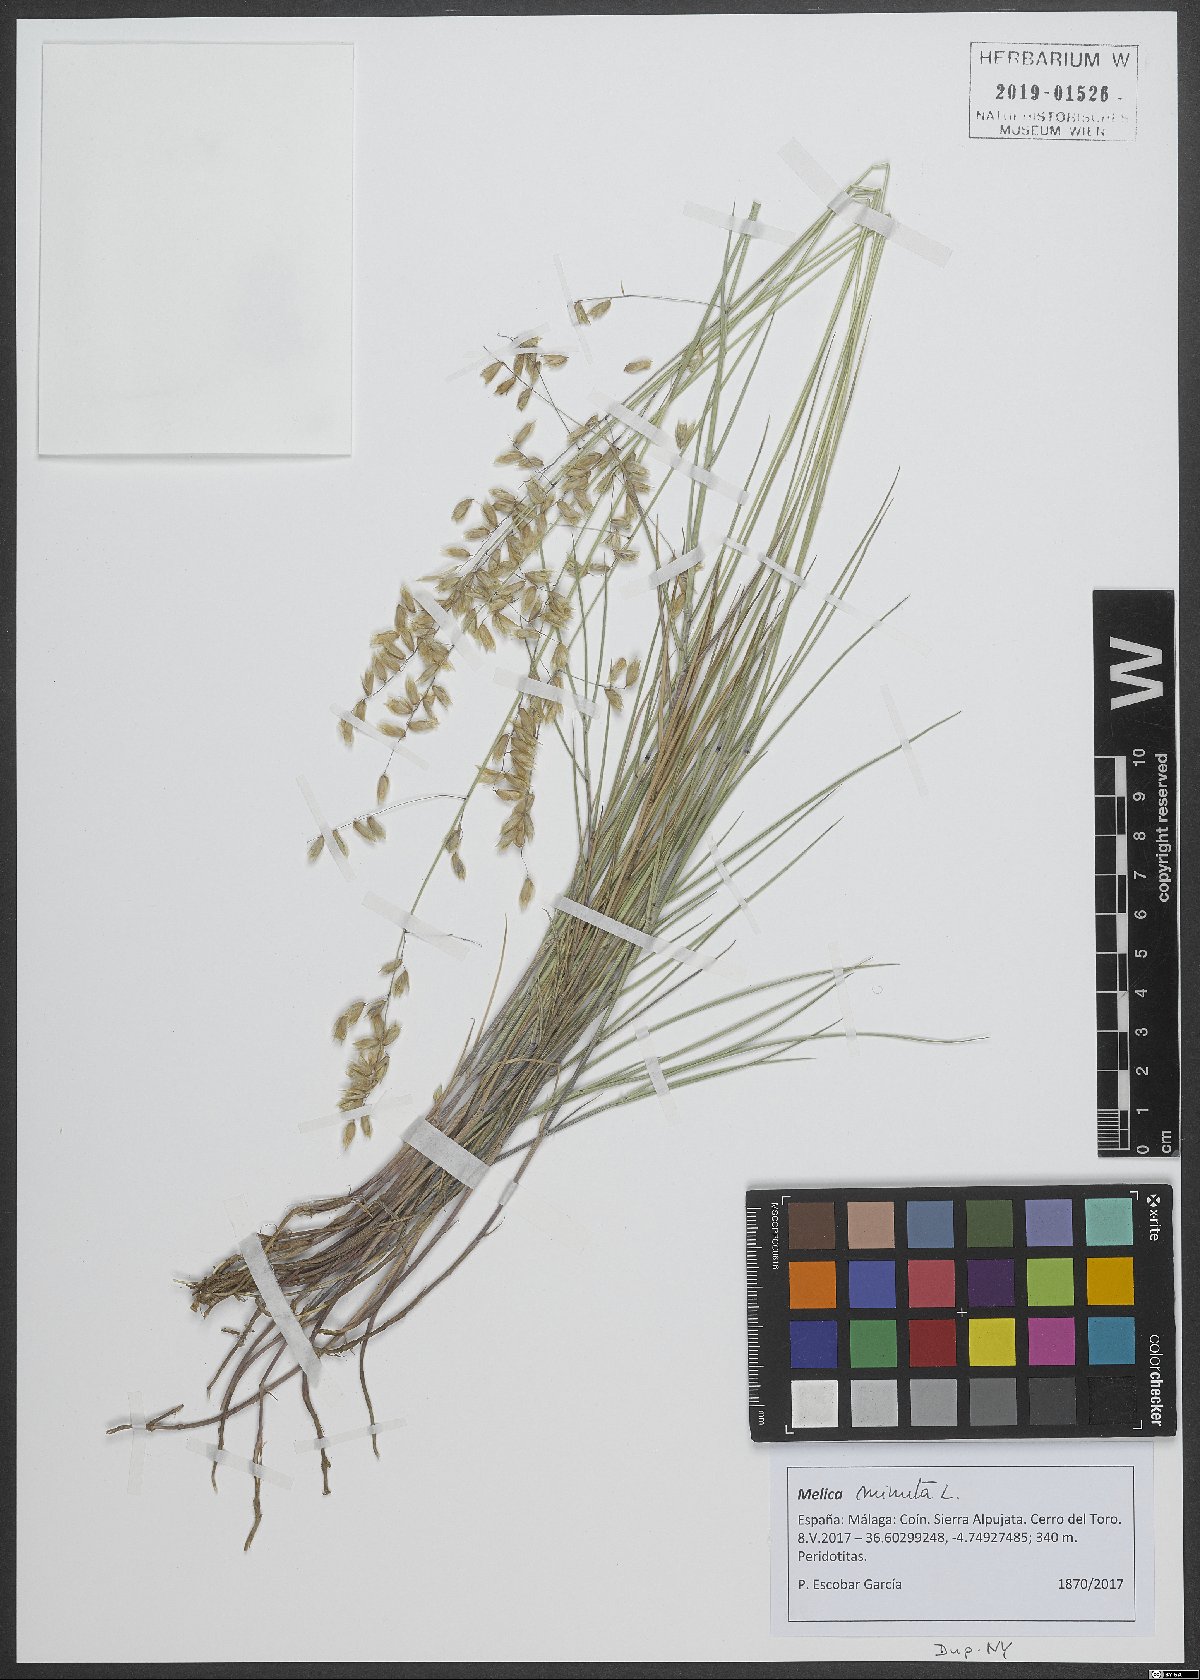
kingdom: Plantae
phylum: Tracheophyta
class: Liliopsida
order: Poales
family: Poaceae
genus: Melica
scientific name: Melica minuta
